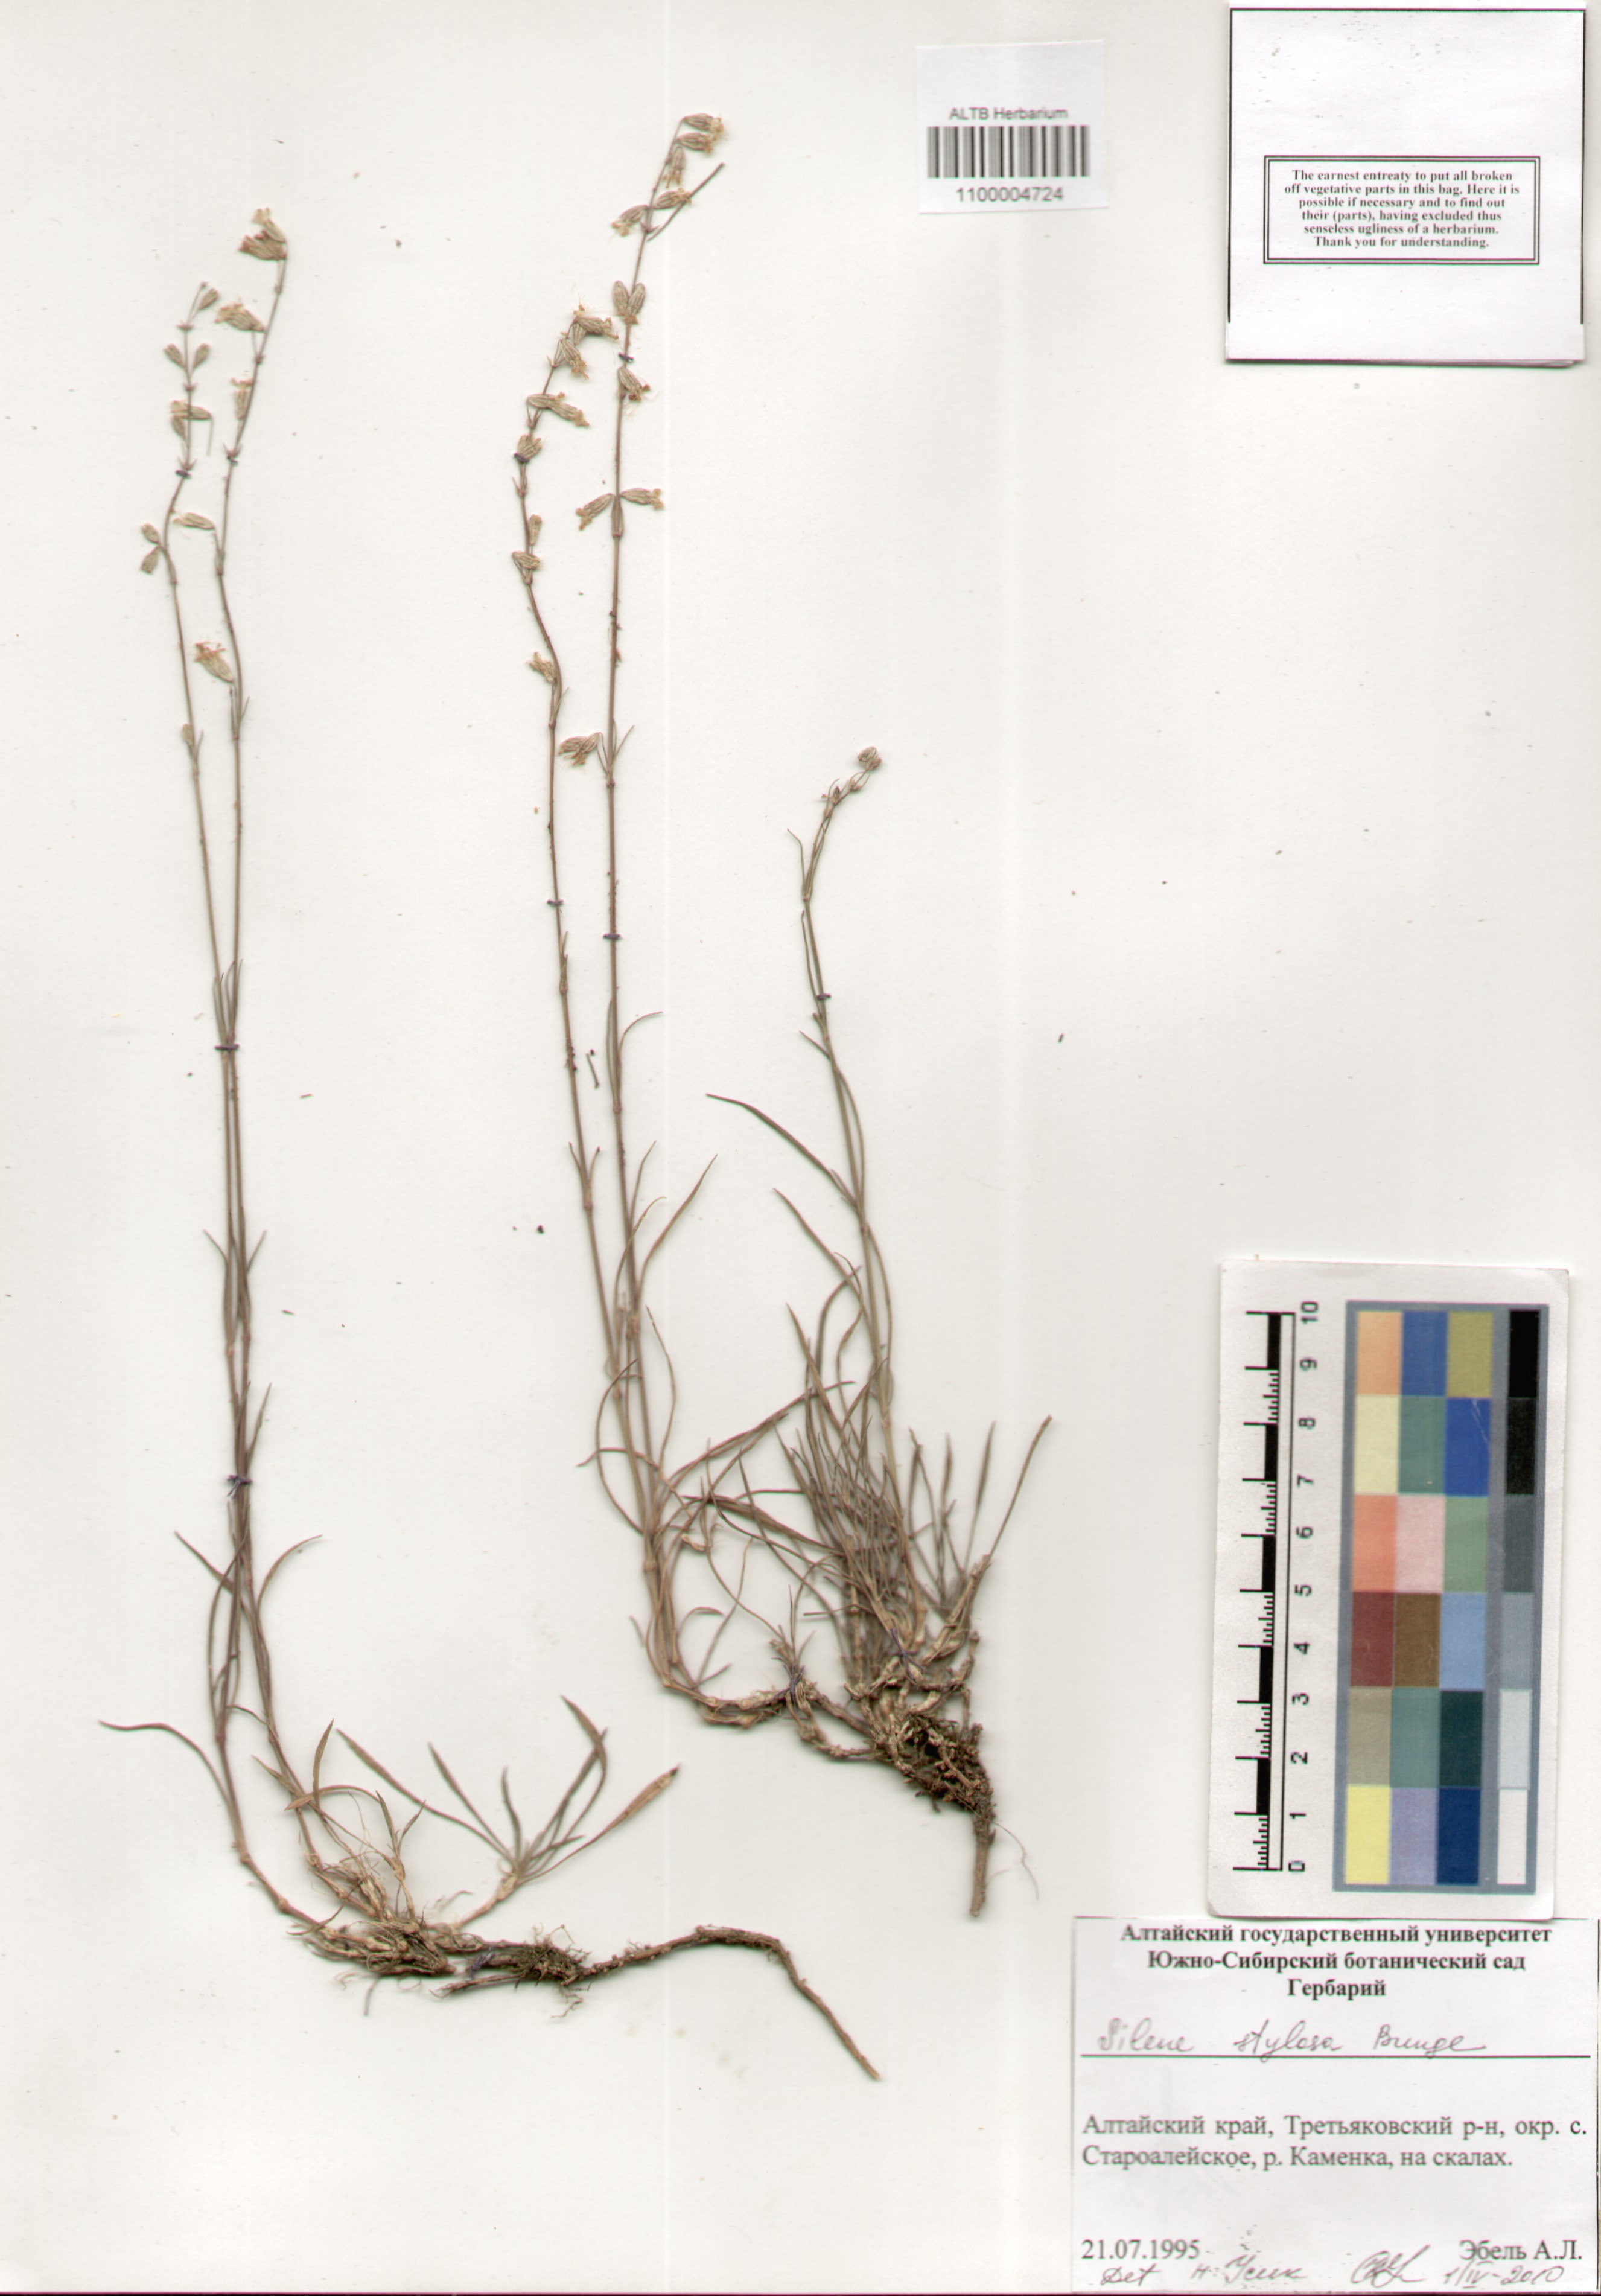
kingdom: Plantae
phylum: Tracheophyta
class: Magnoliopsida
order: Caryophyllales
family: Caryophyllaceae
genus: Silene
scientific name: Silene graminifolia
